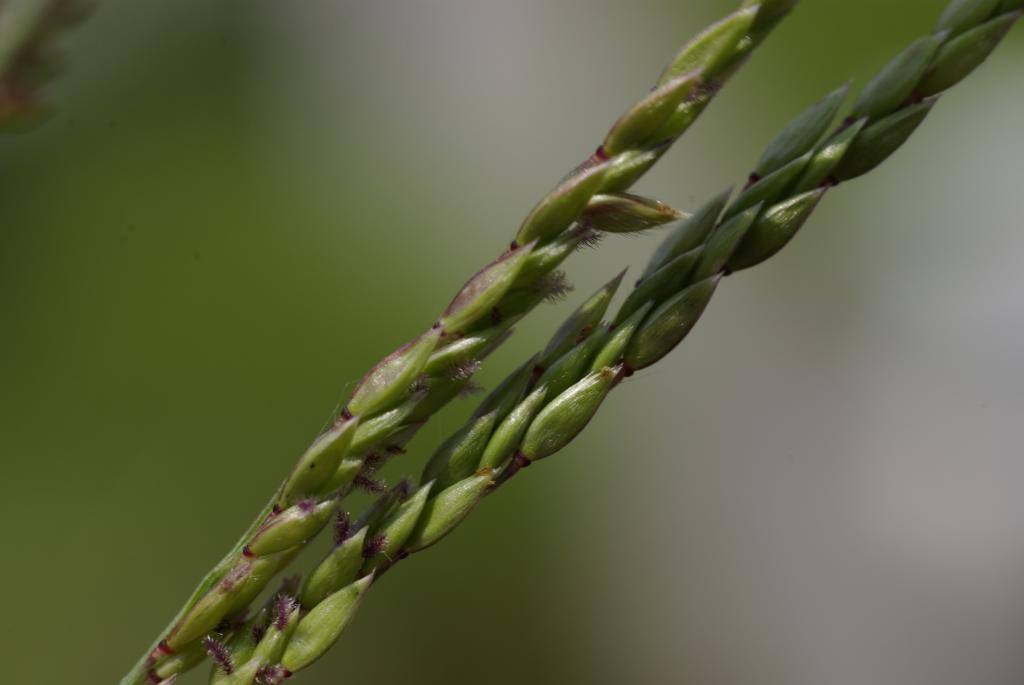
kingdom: Plantae
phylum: Tracheophyta
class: Liliopsida
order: Poales
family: Poaceae
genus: Eriochloa
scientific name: Eriochloa procera
